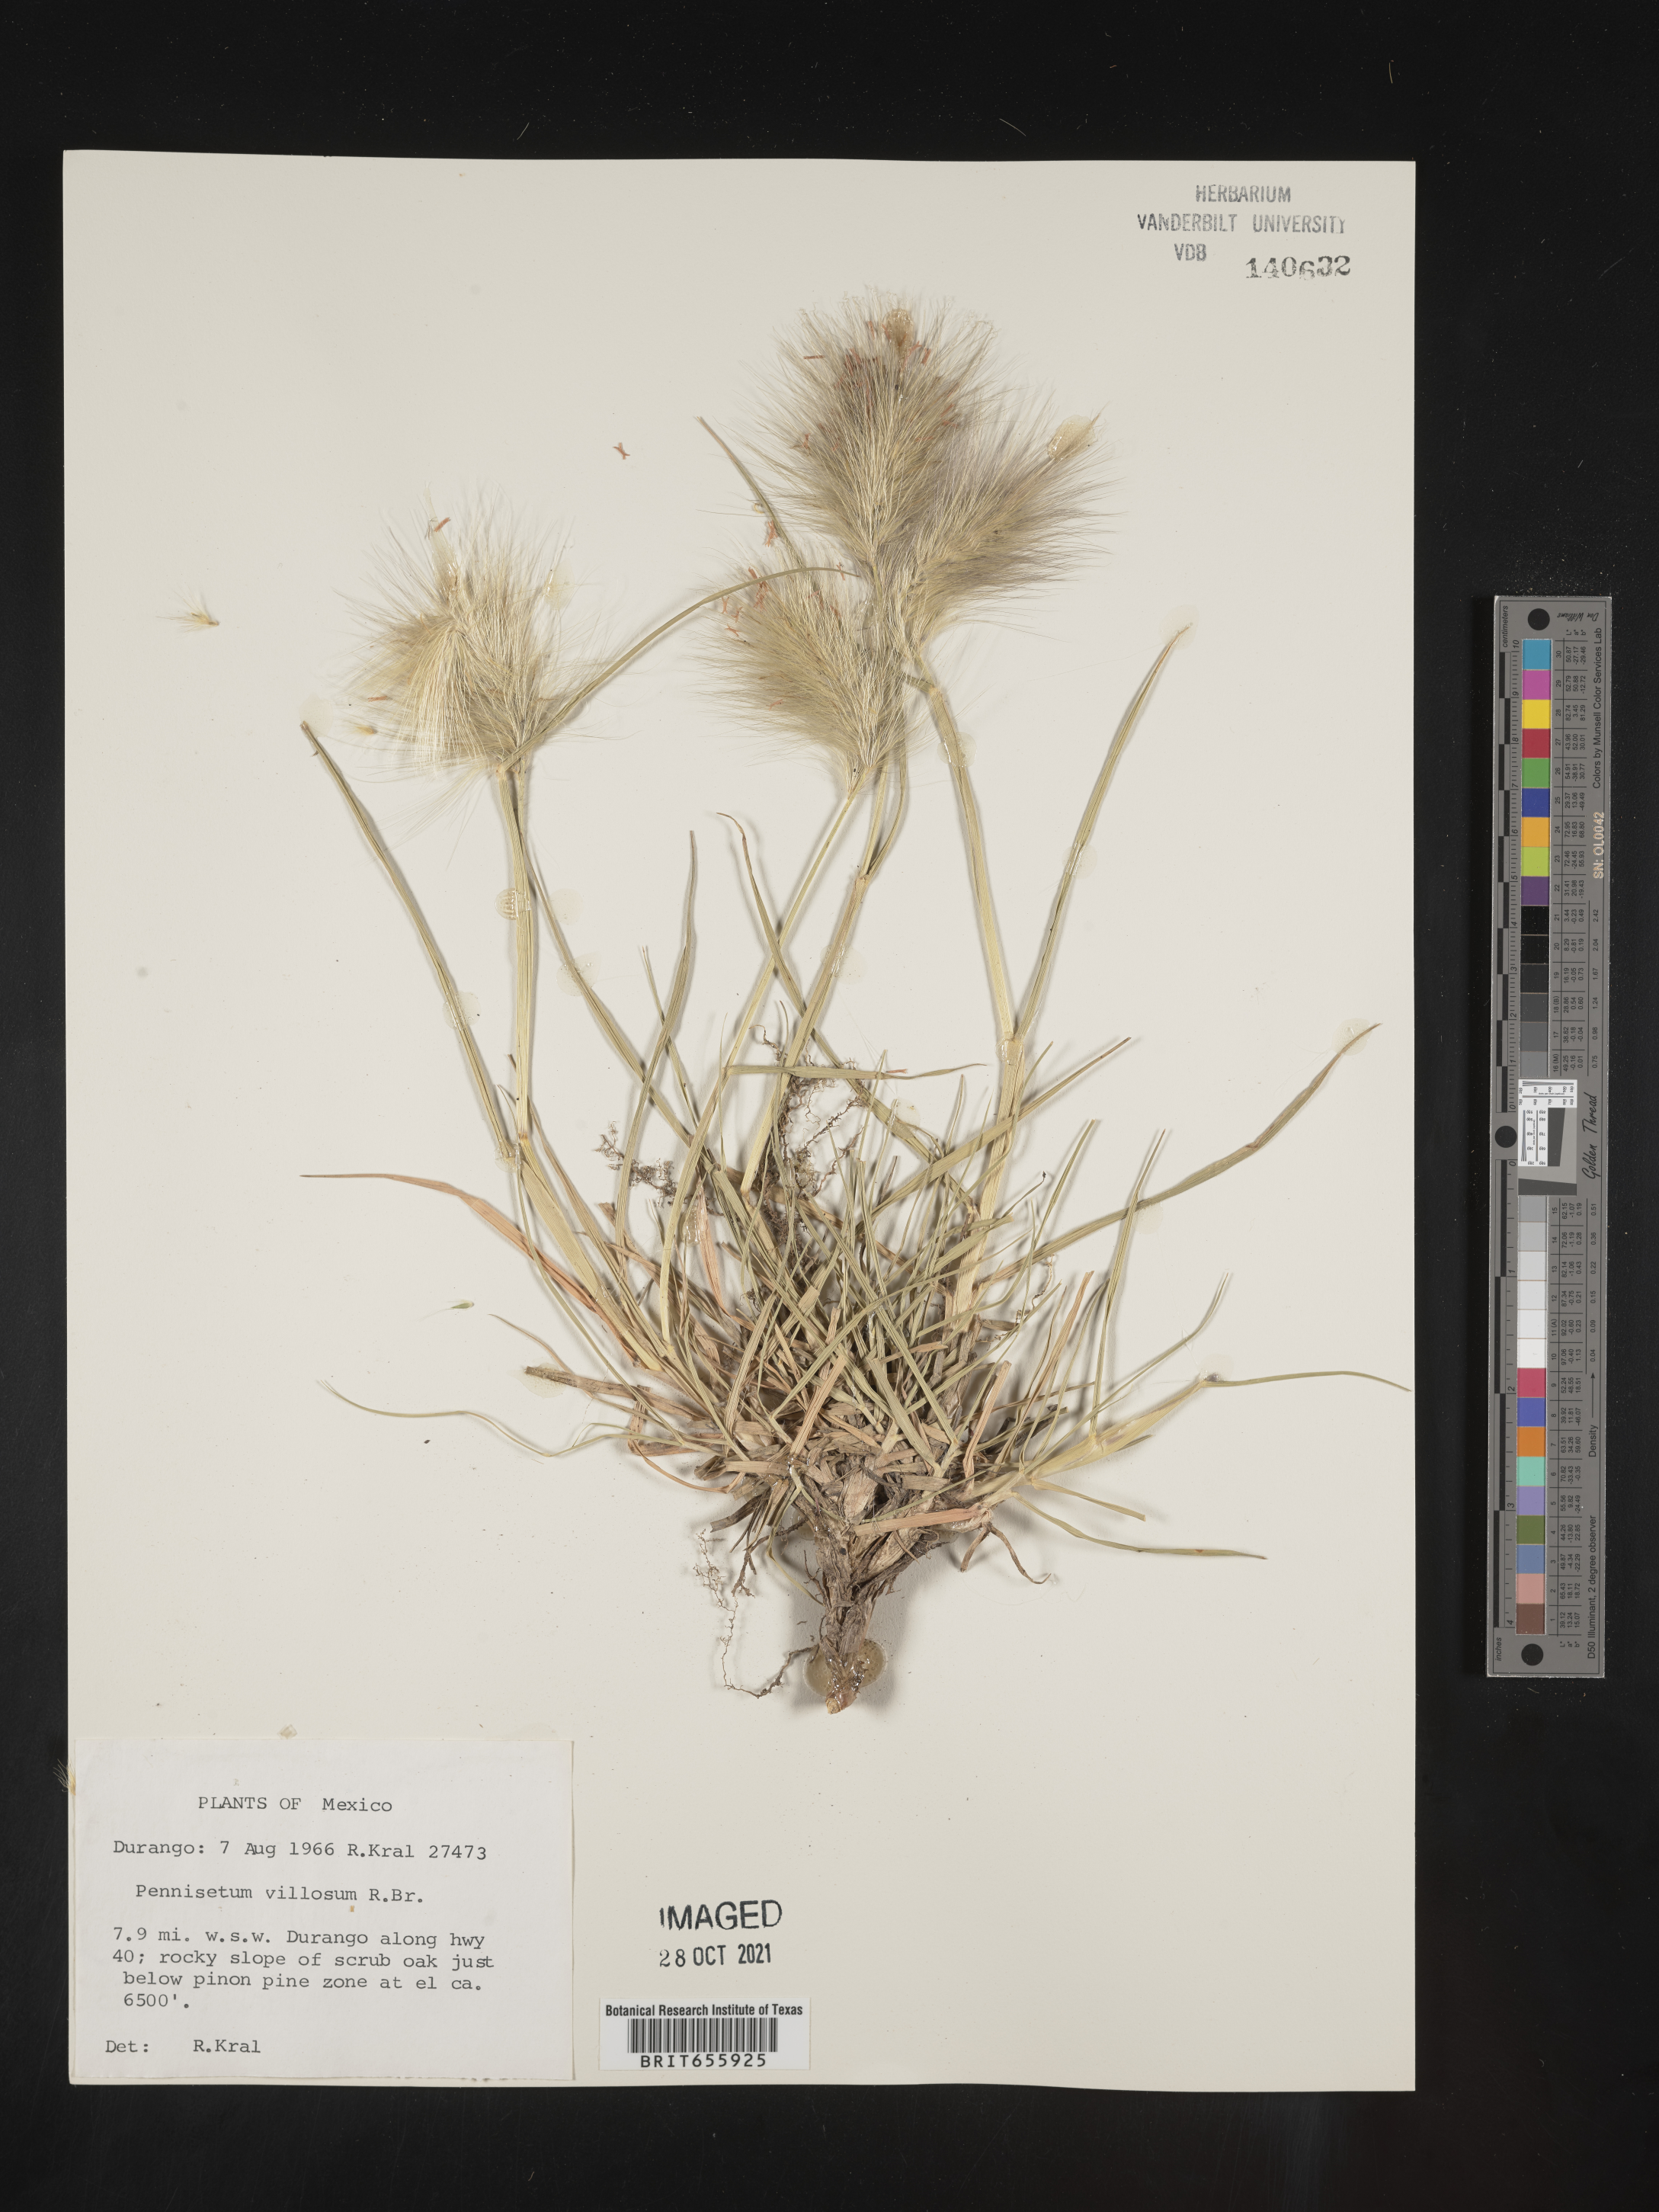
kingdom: Plantae
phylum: Tracheophyta
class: Liliopsida
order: Poales
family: Poaceae
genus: Cenchrus
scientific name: Cenchrus Pennisetum spec
